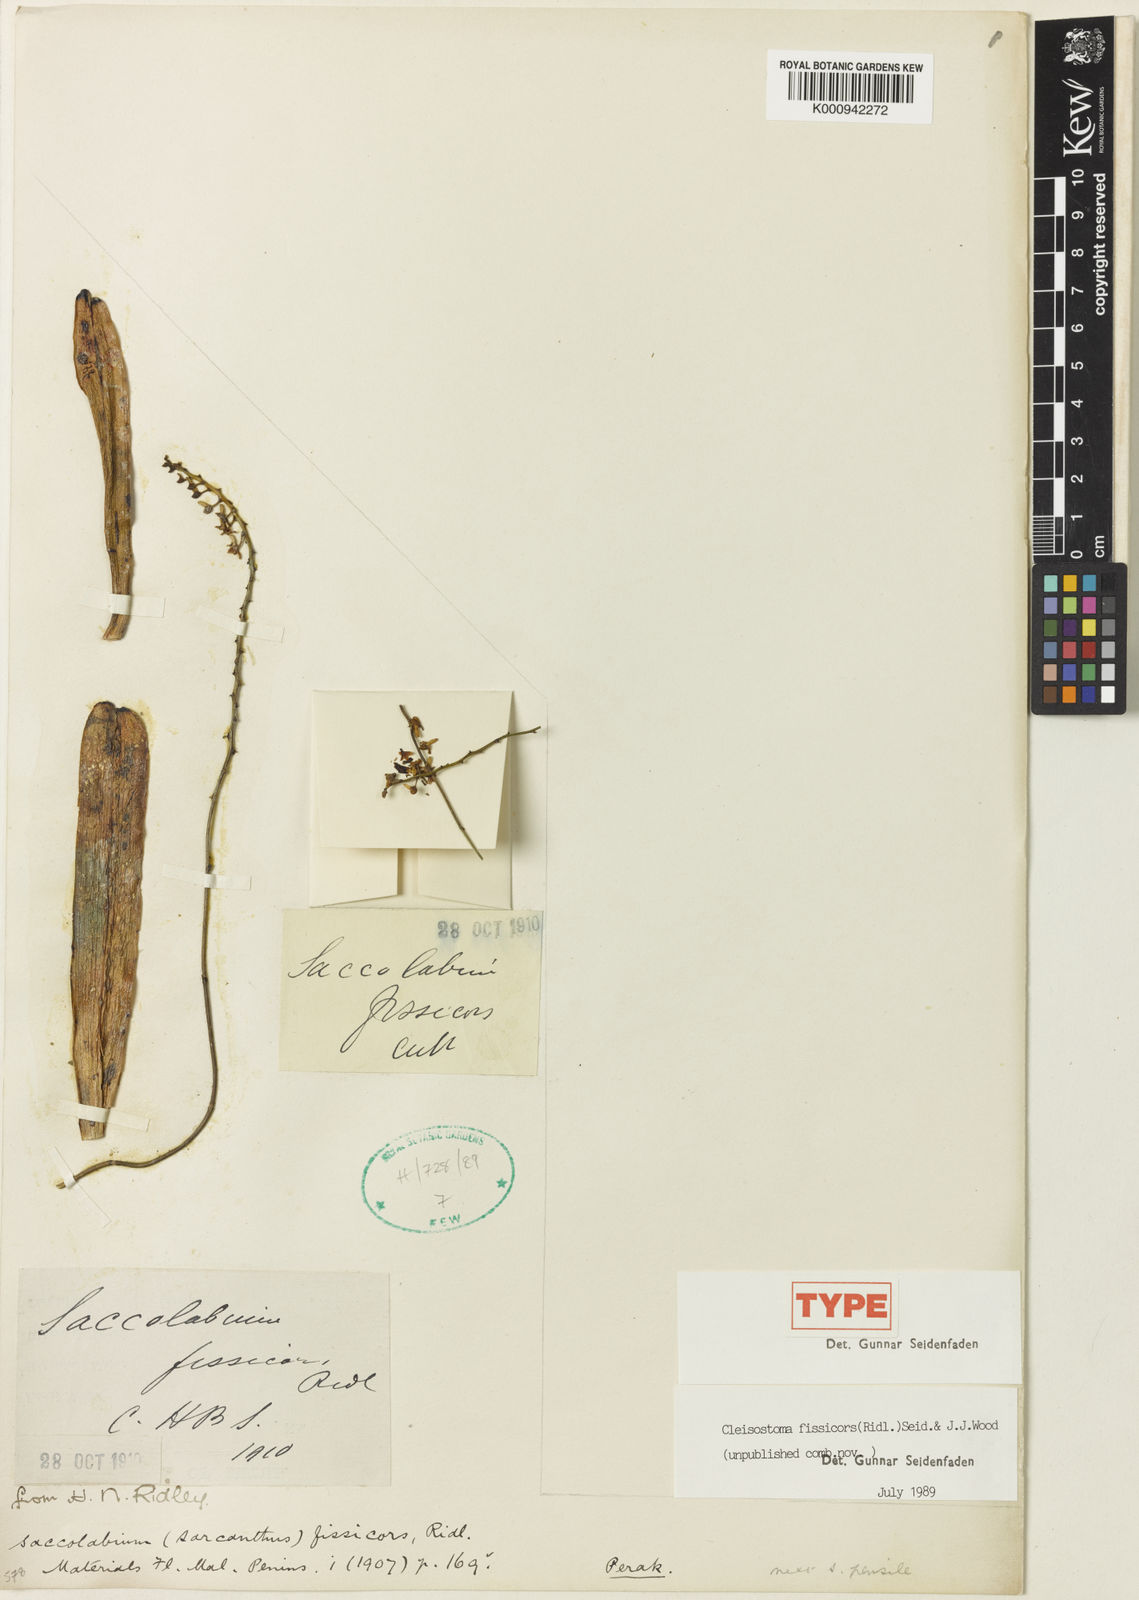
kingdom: Plantae
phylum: Tracheophyta
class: Liliopsida
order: Asparagales
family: Orchidaceae
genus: Cleisostoma
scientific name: Cleisostoma fissicors
